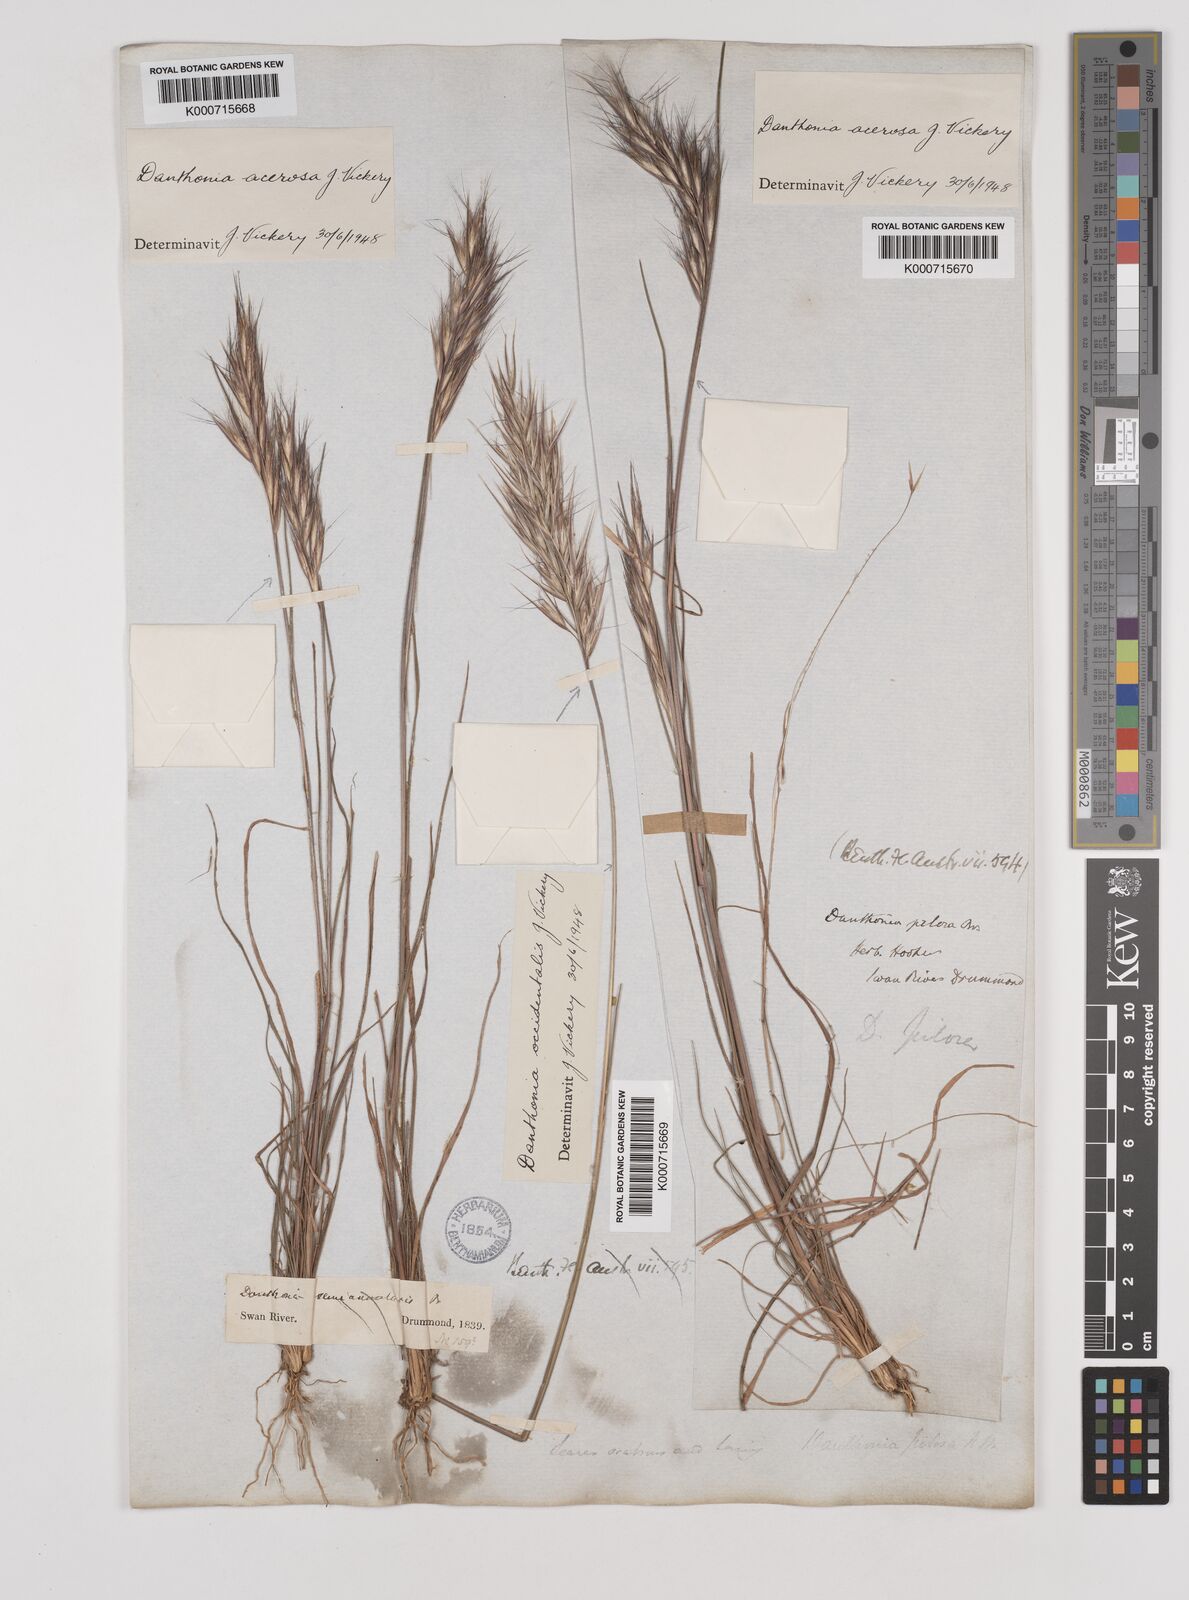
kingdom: Plantae
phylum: Tracheophyta
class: Liliopsida
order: Poales
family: Poaceae
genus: Rytidosperma
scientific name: Rytidosperma acerosum
